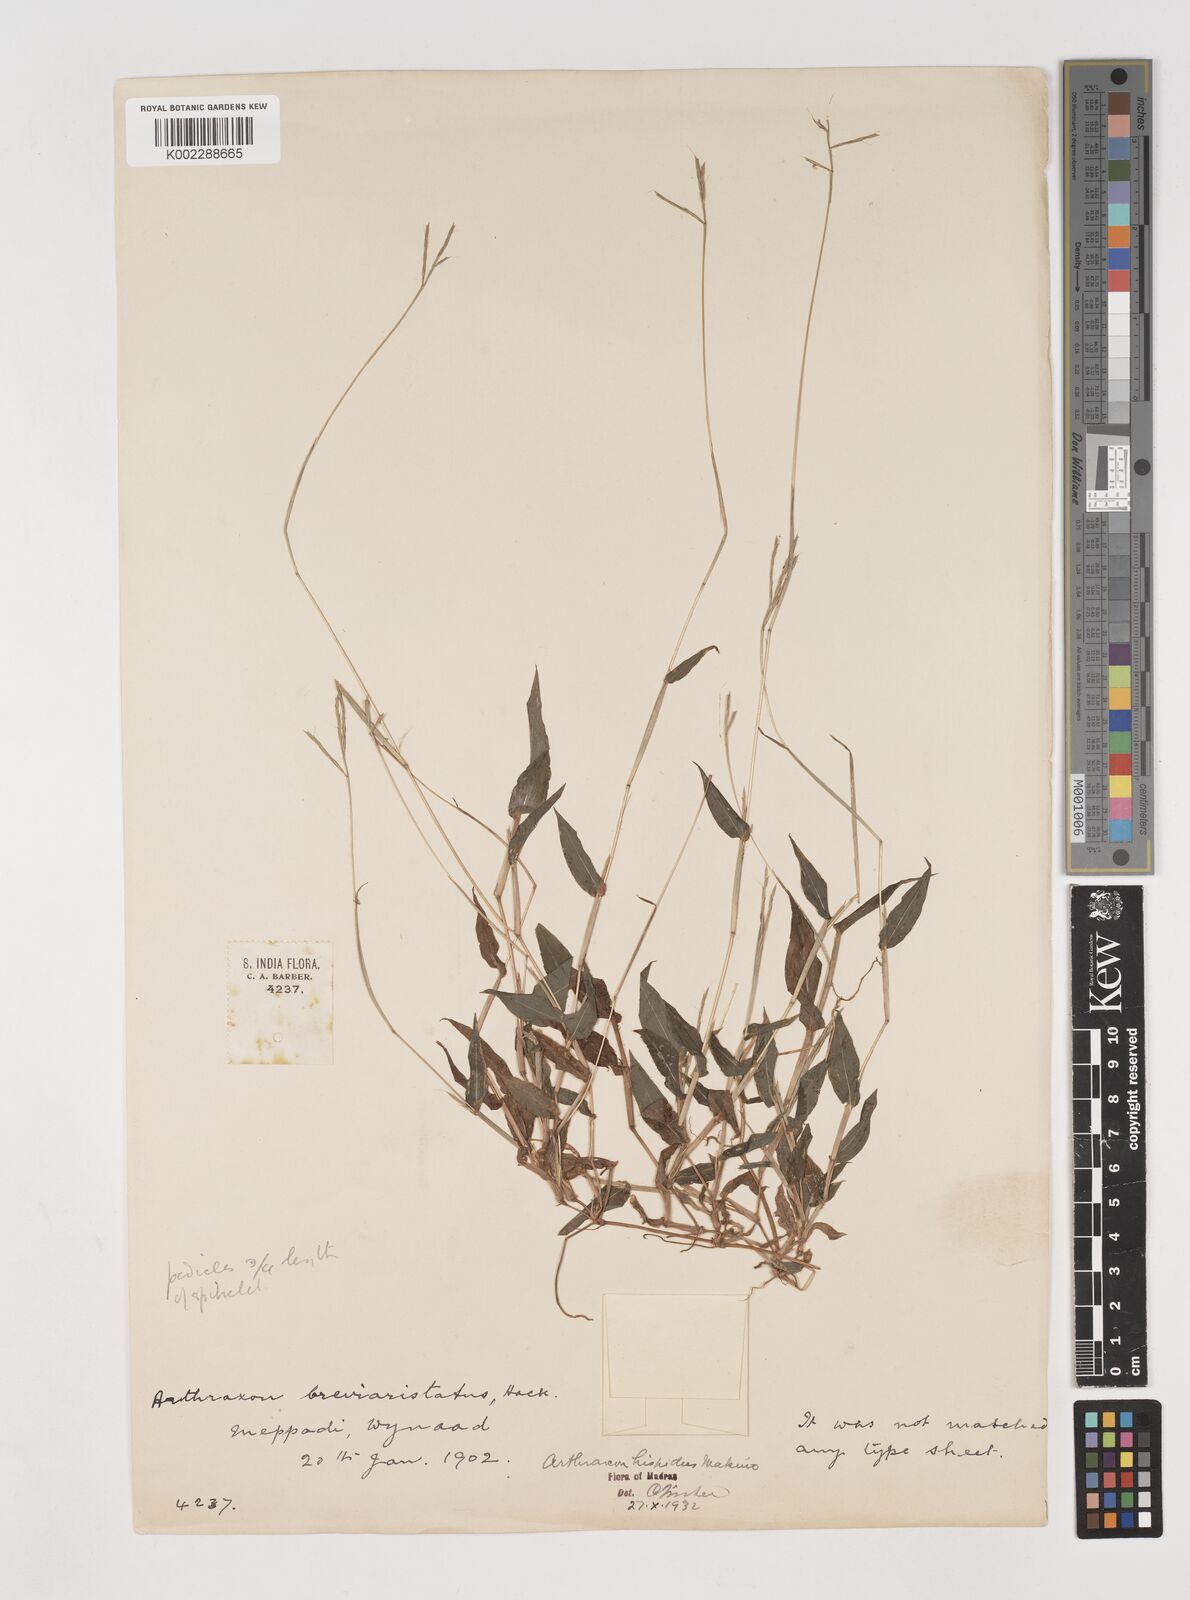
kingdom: Plantae
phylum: Tracheophyta
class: Liliopsida
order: Poales
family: Poaceae
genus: Arthraxon
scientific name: Arthraxon nudus
